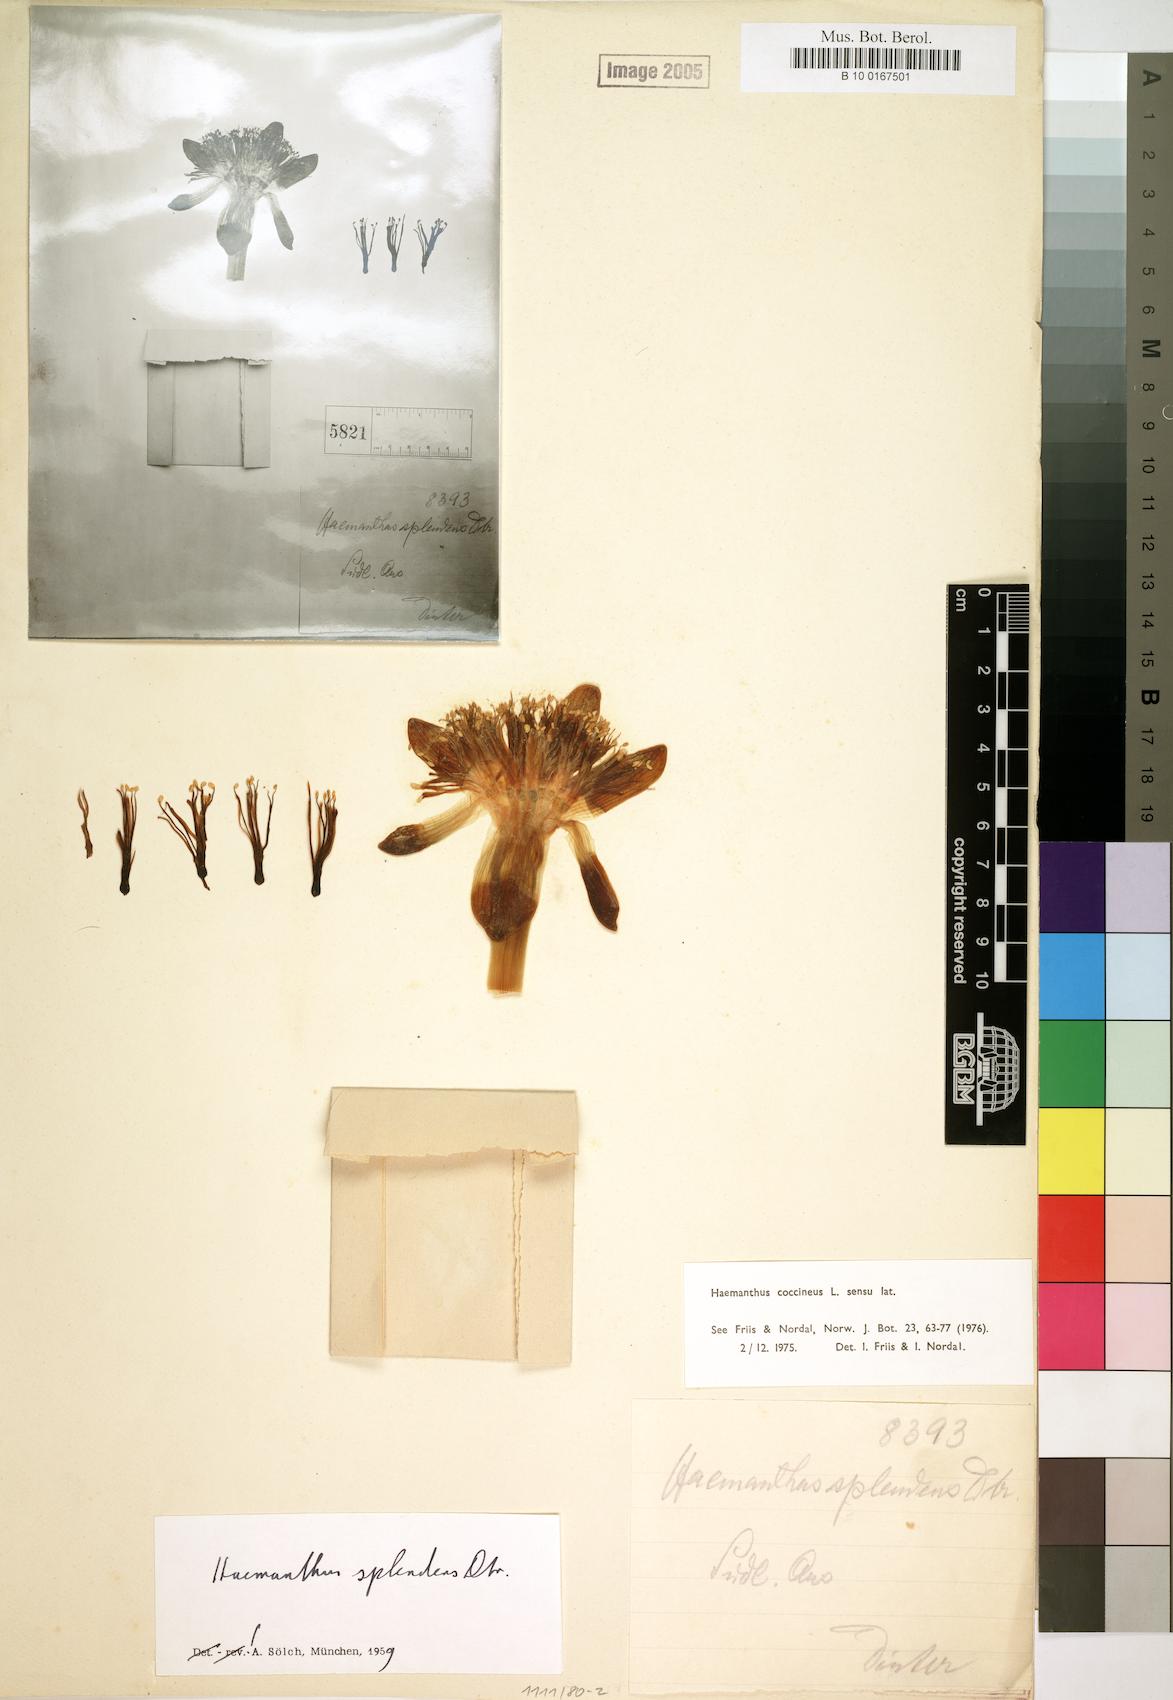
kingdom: Plantae
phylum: Tracheophyta
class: Liliopsida
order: Asparagales
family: Amaryllidaceae
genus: Haemanthus
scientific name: Haemanthus coccineus
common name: Cape-tulip
